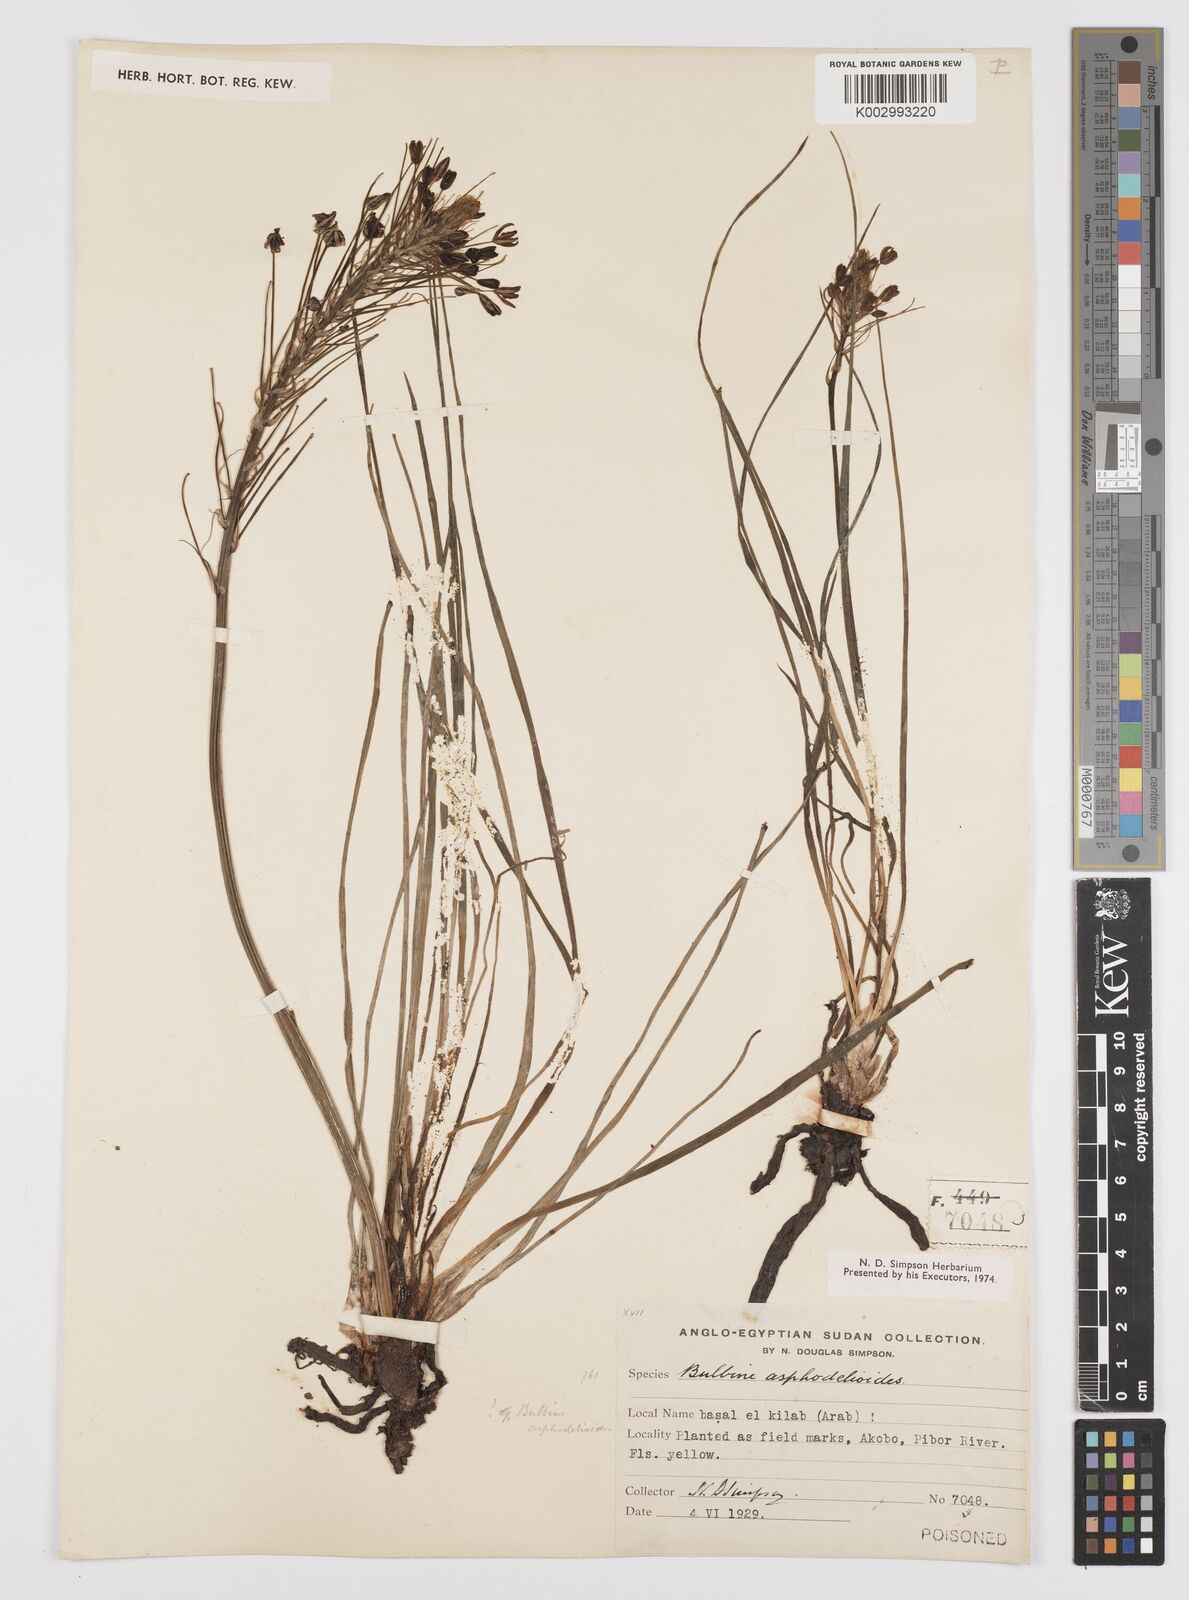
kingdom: Plantae
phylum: Tracheophyta
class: Liliopsida
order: Asparagales
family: Asphodelaceae
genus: Bulbine
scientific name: Bulbine abyssinica
